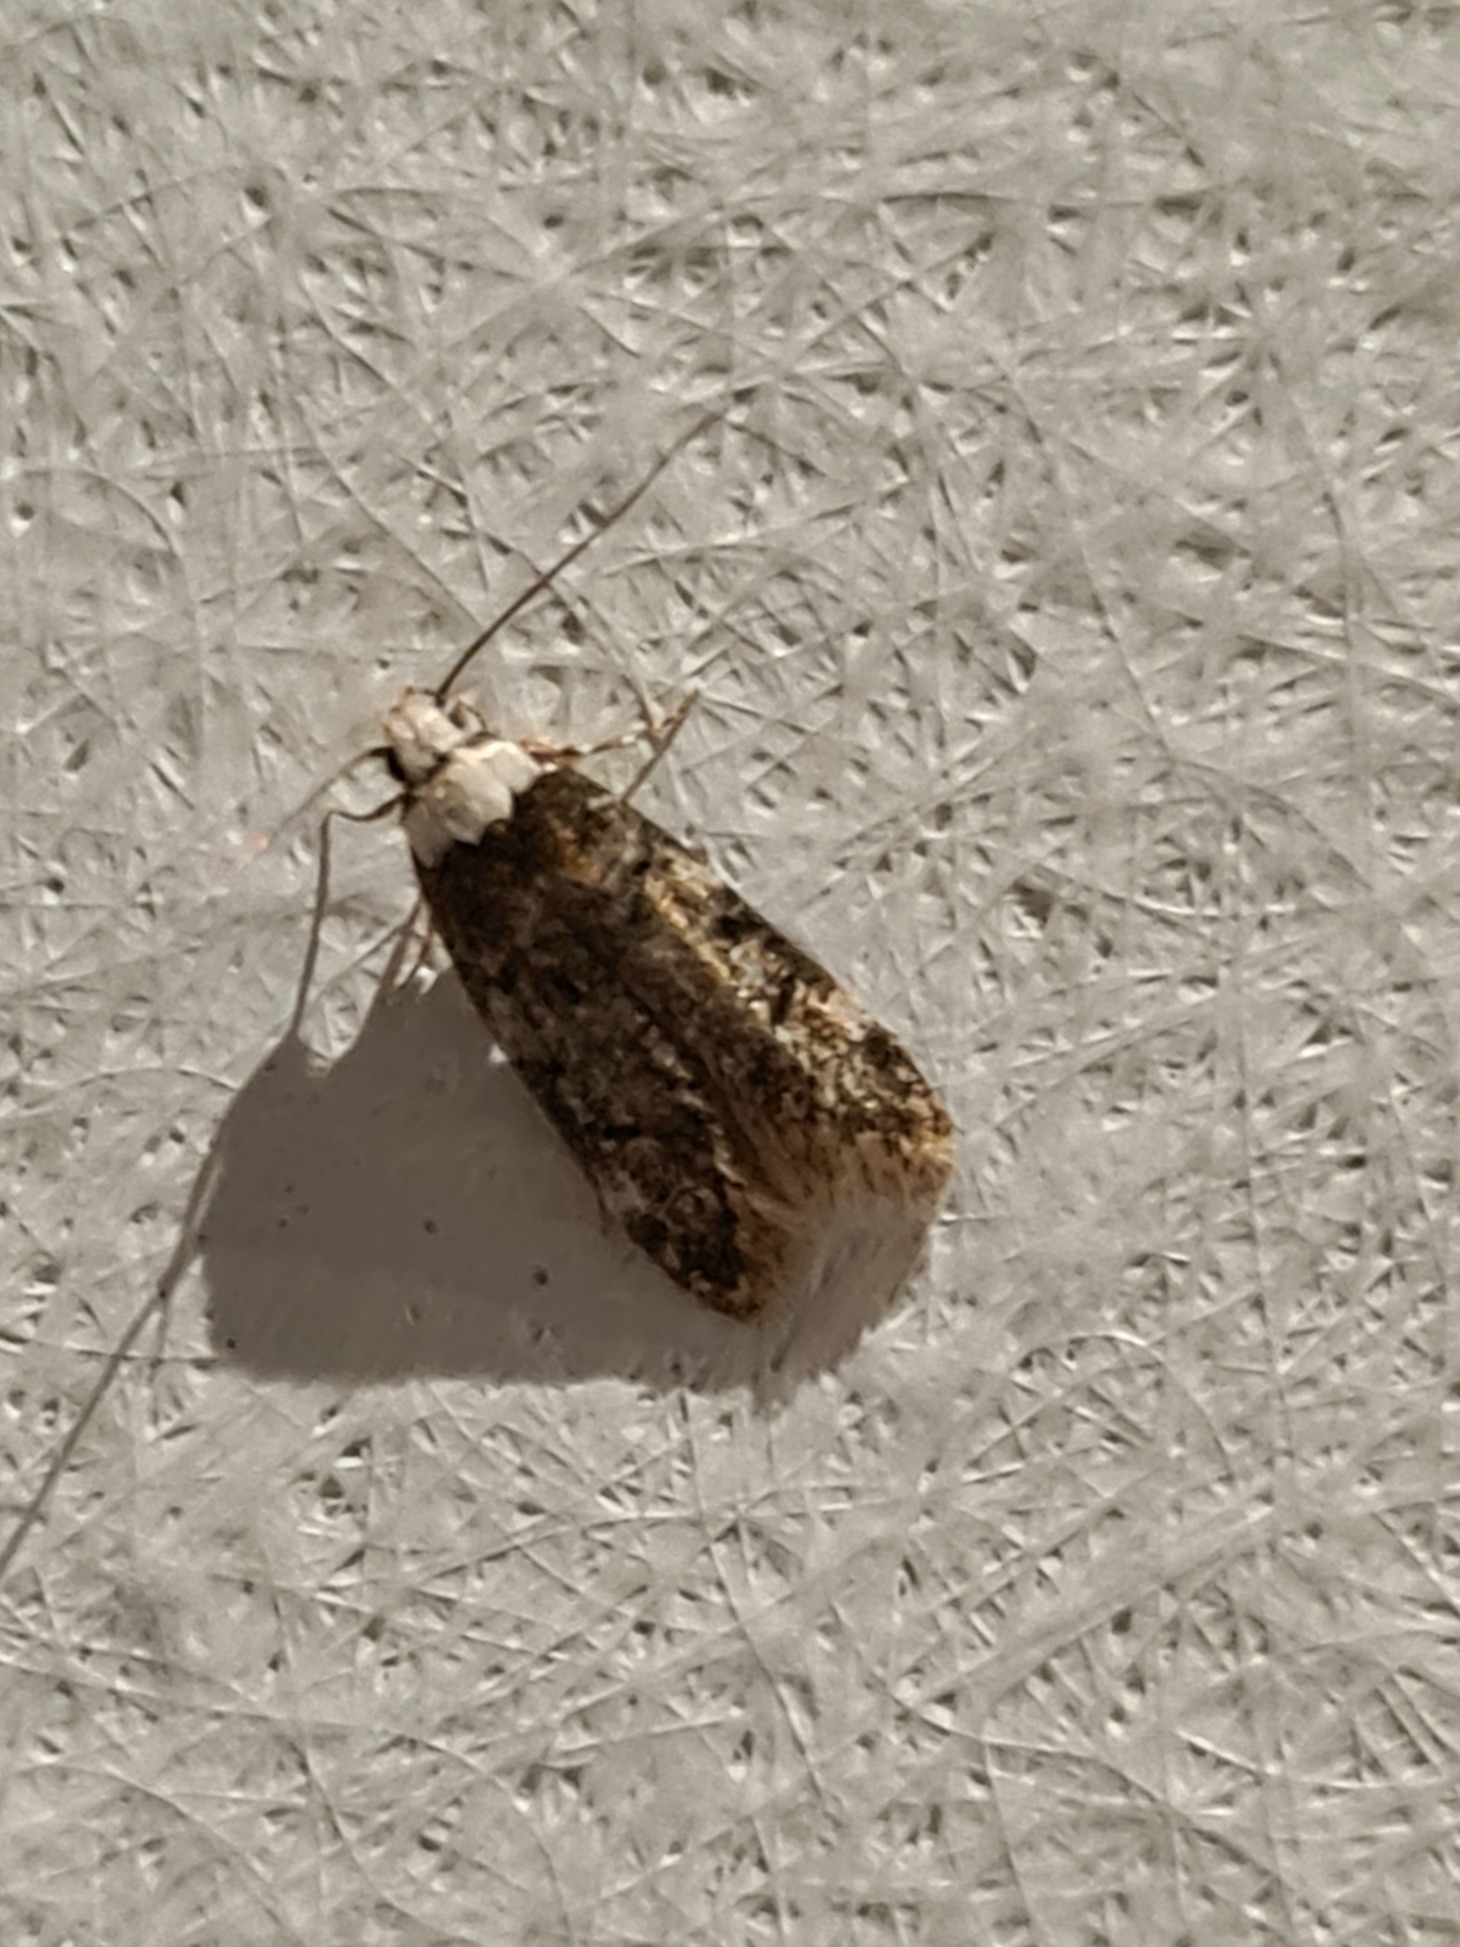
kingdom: Animalia
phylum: Arthropoda
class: Insecta
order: Lepidoptera
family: Oecophoridae
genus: Endrosis
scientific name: Endrosis sarcitrella
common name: Klistermøl
